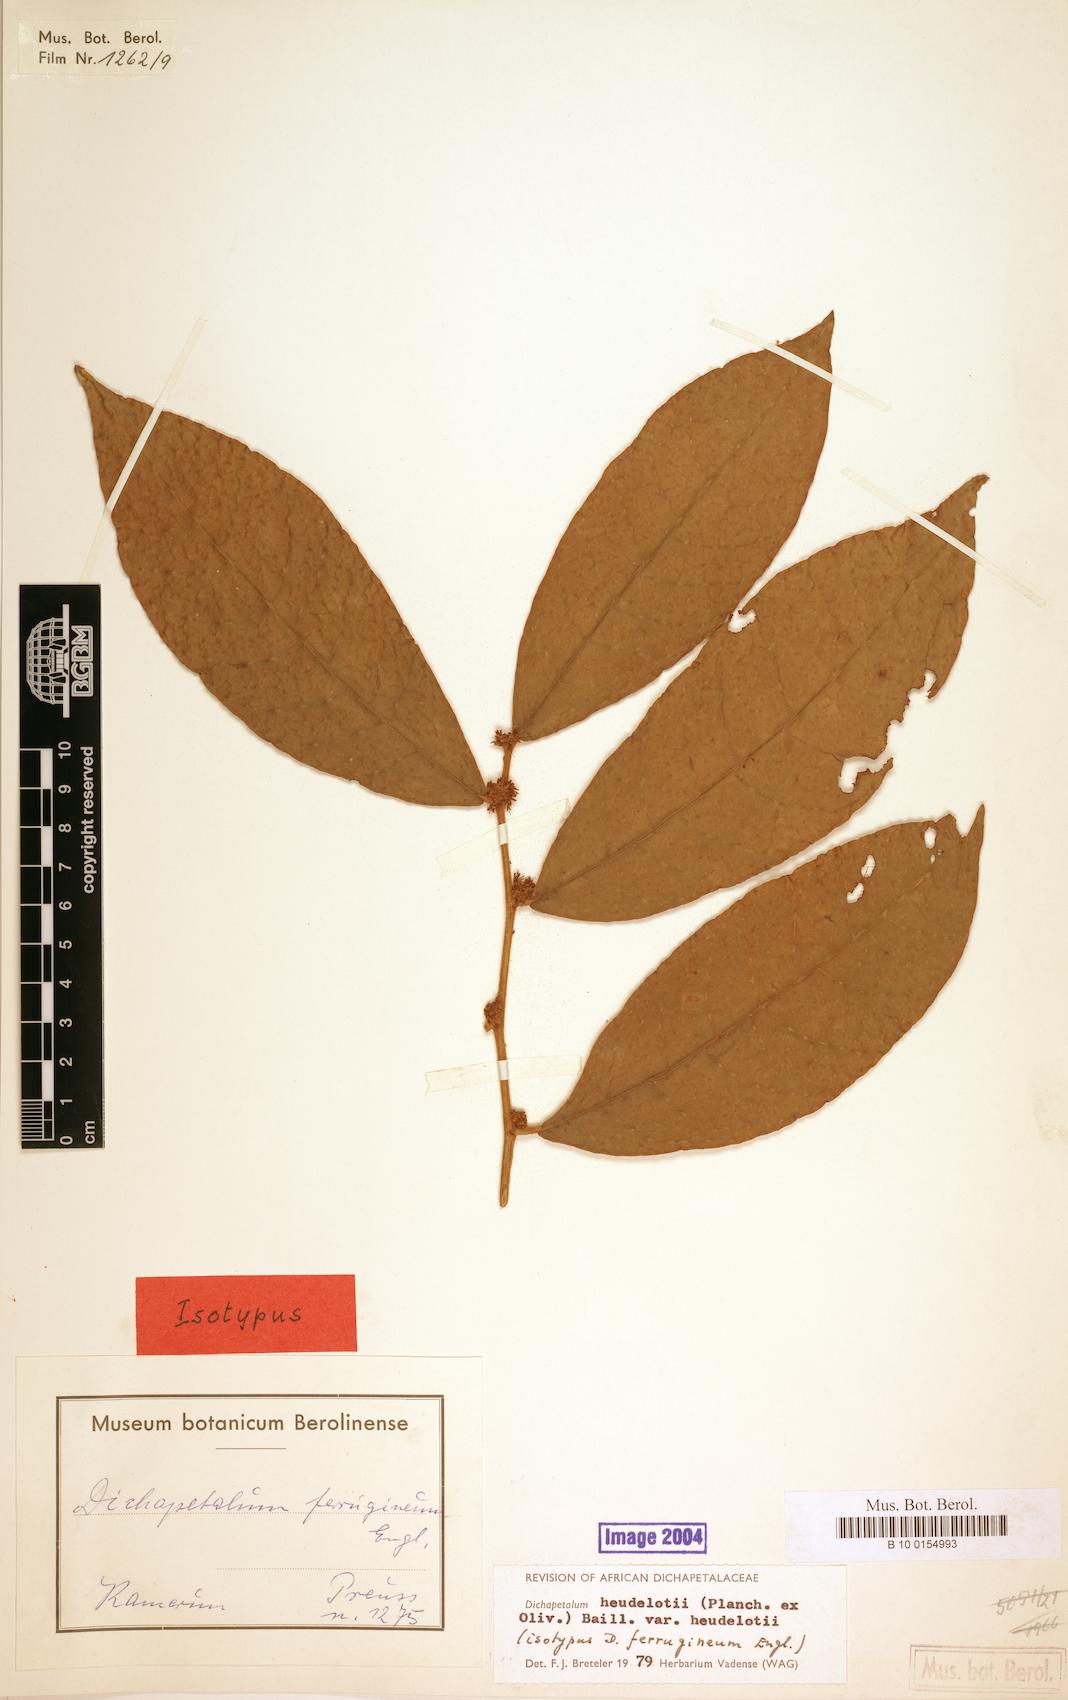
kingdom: Plantae
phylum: Tracheophyta
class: Magnoliopsida
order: Malpighiales
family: Dichapetalaceae
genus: Dichapetalum
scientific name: Dichapetalum heudelotii
